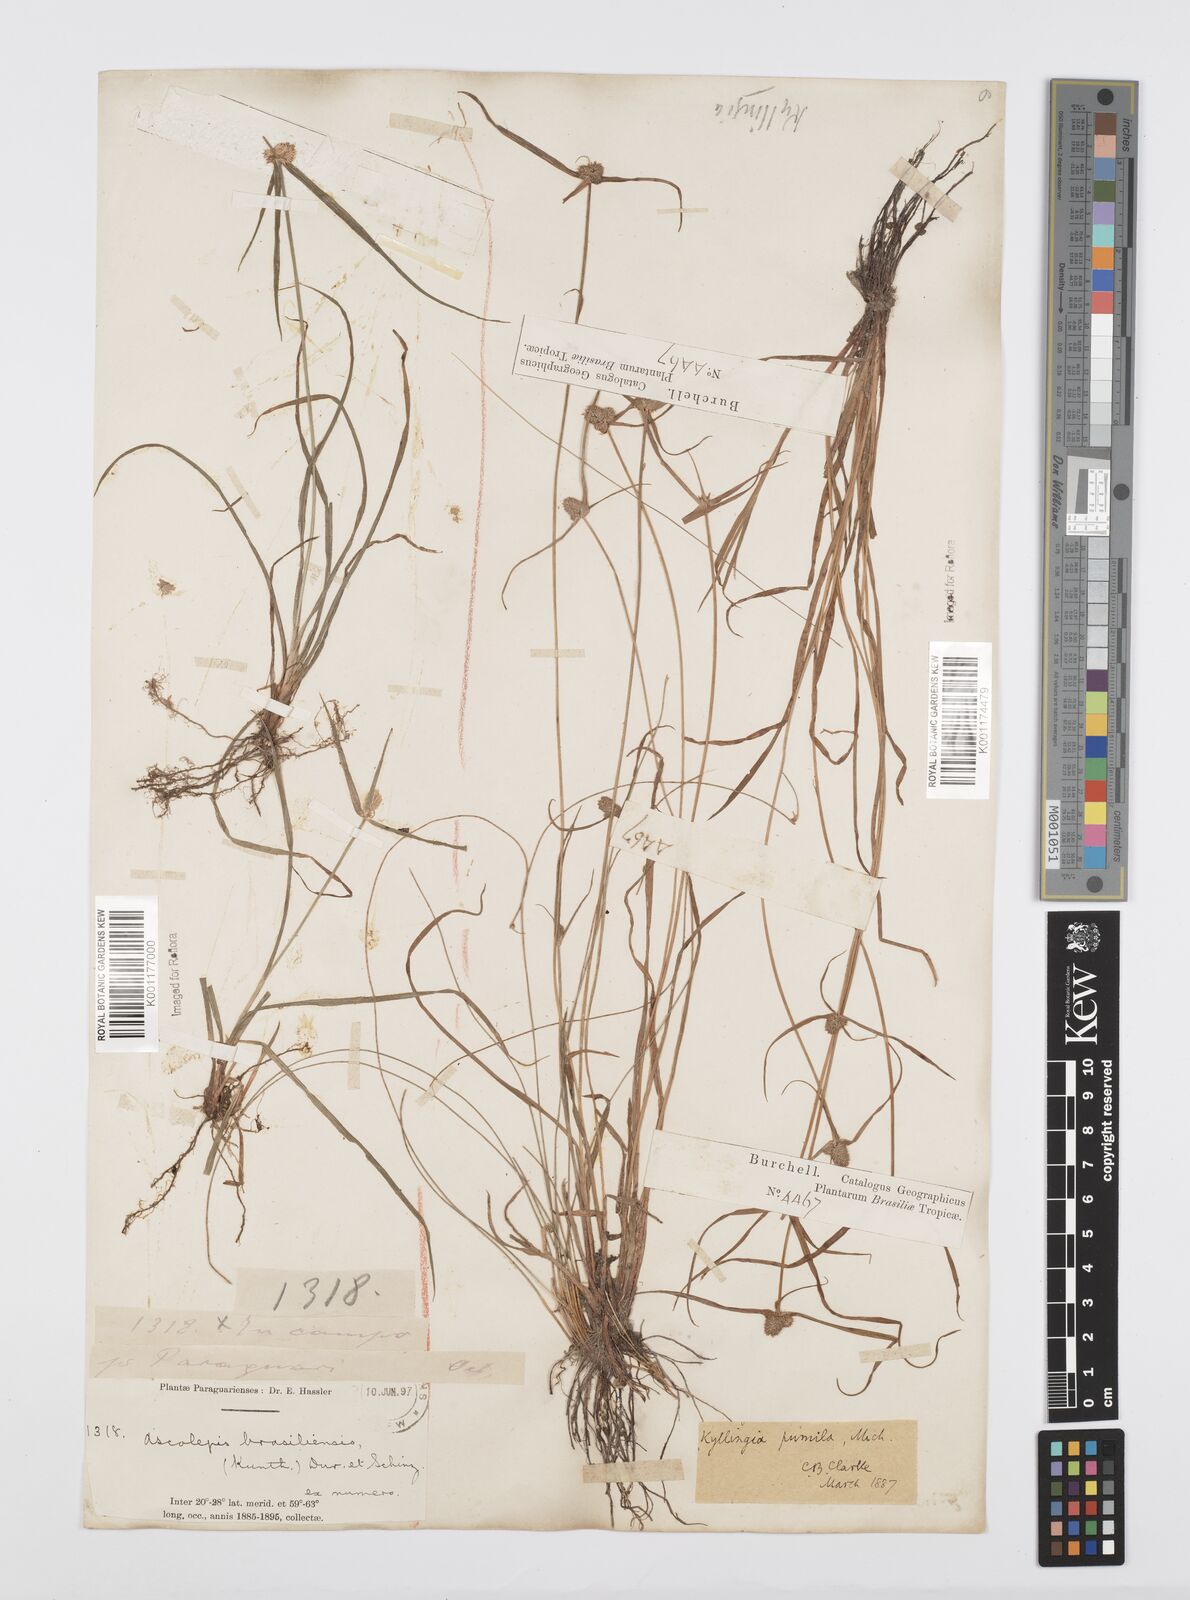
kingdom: Plantae
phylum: Tracheophyta
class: Liliopsida
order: Poales
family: Cyperaceae
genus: Cyperus
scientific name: Cyperus
